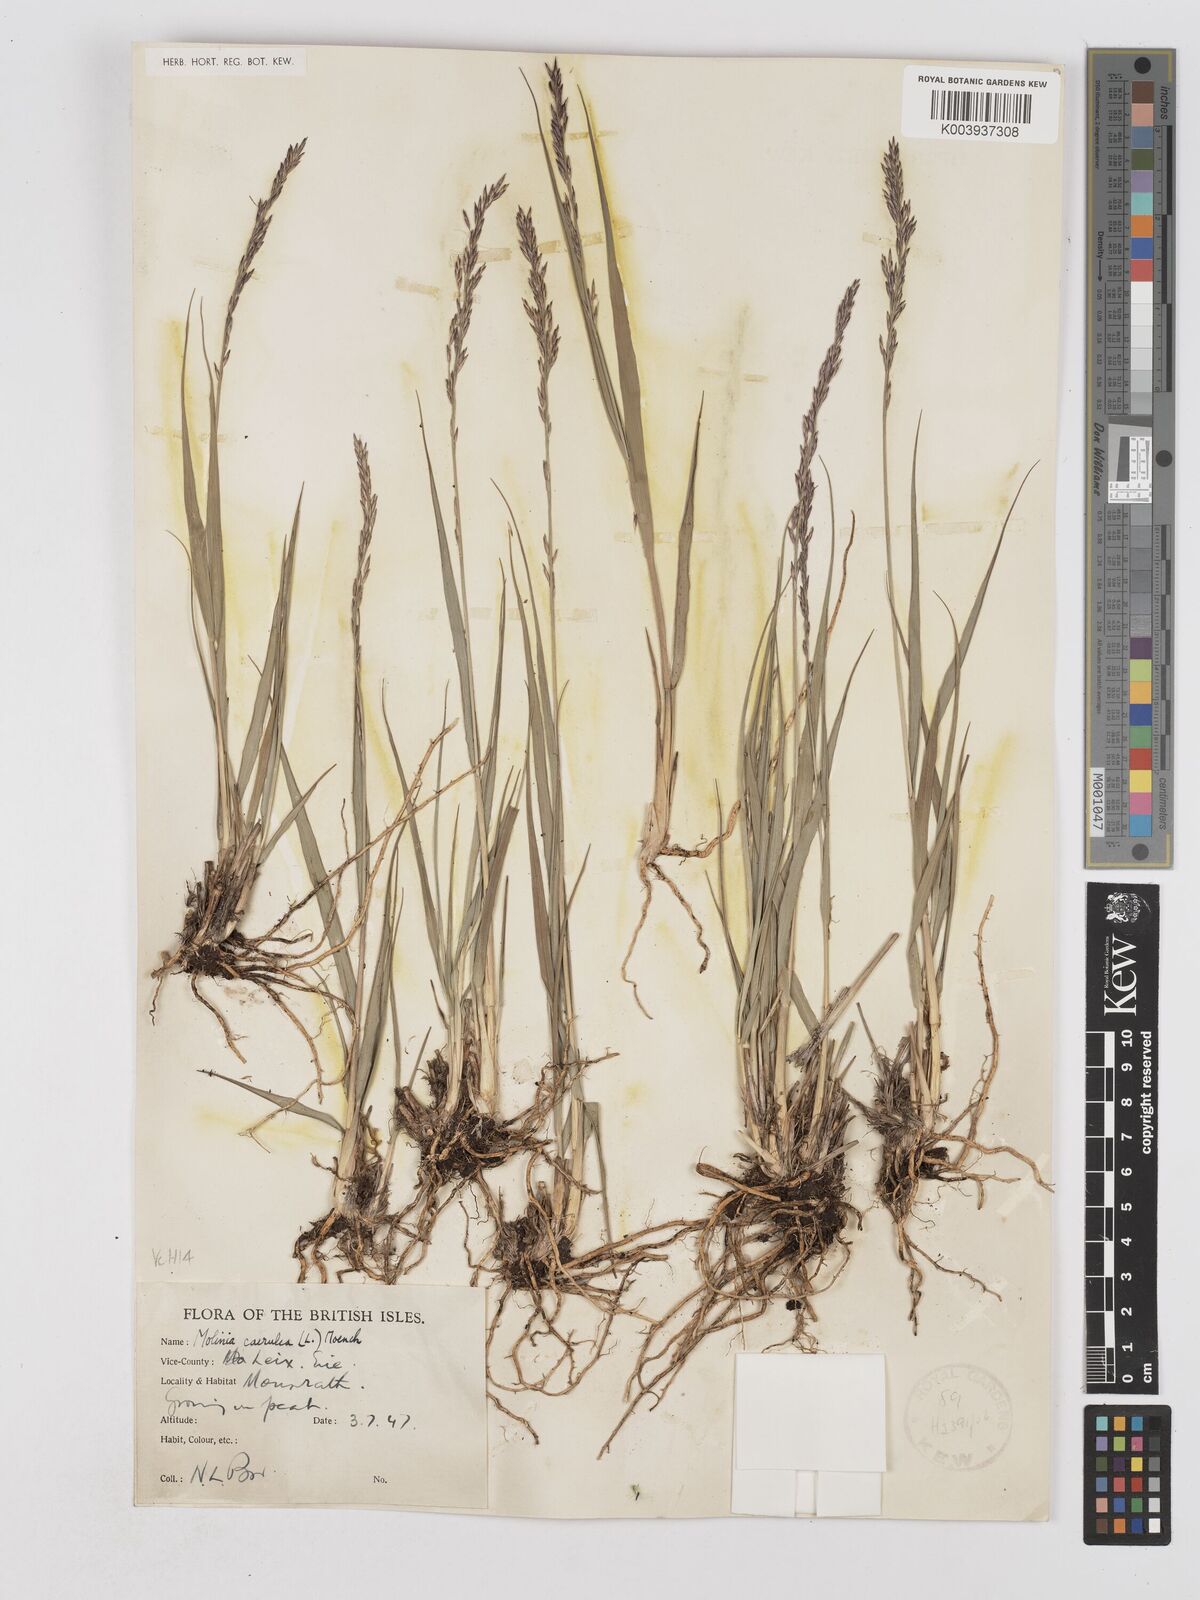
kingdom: Plantae
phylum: Tracheophyta
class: Liliopsida
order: Poales
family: Poaceae
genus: Molinia
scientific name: Molinia caerulea
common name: Purple moor-grass
